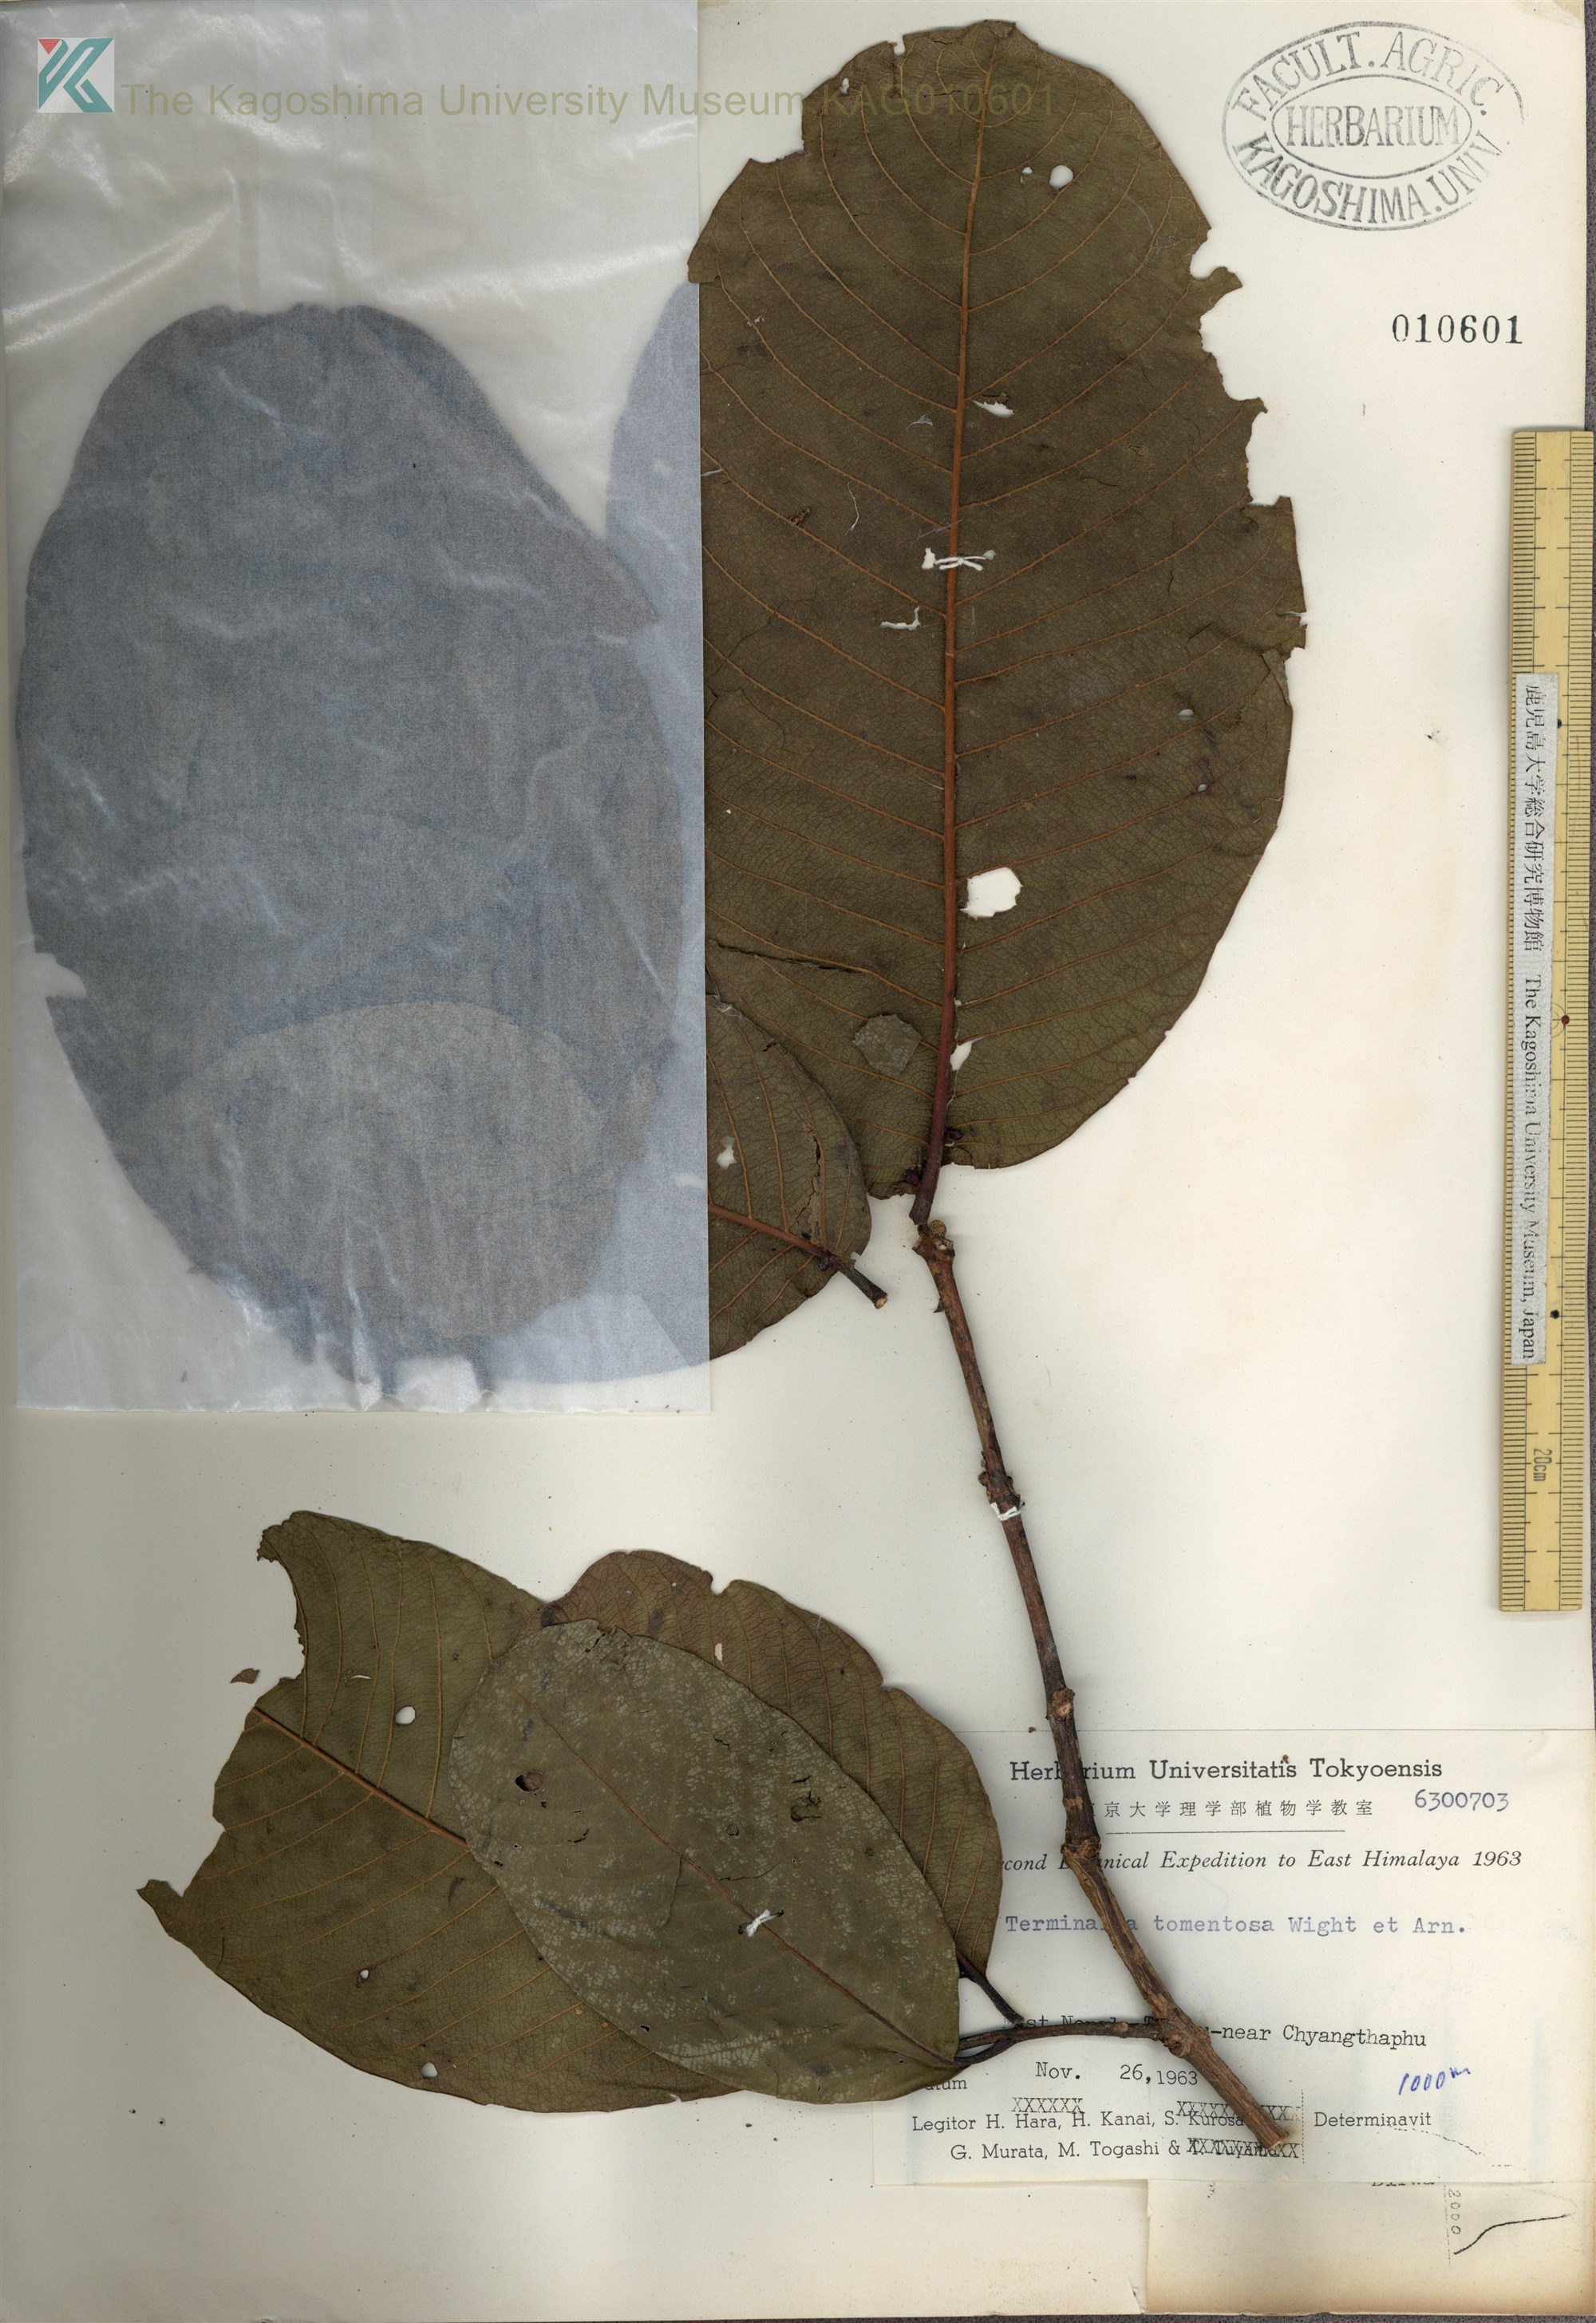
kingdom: Plantae
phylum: Tracheophyta
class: Magnoliopsida
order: Myrtales
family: Combretaceae
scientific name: Combretaceae
